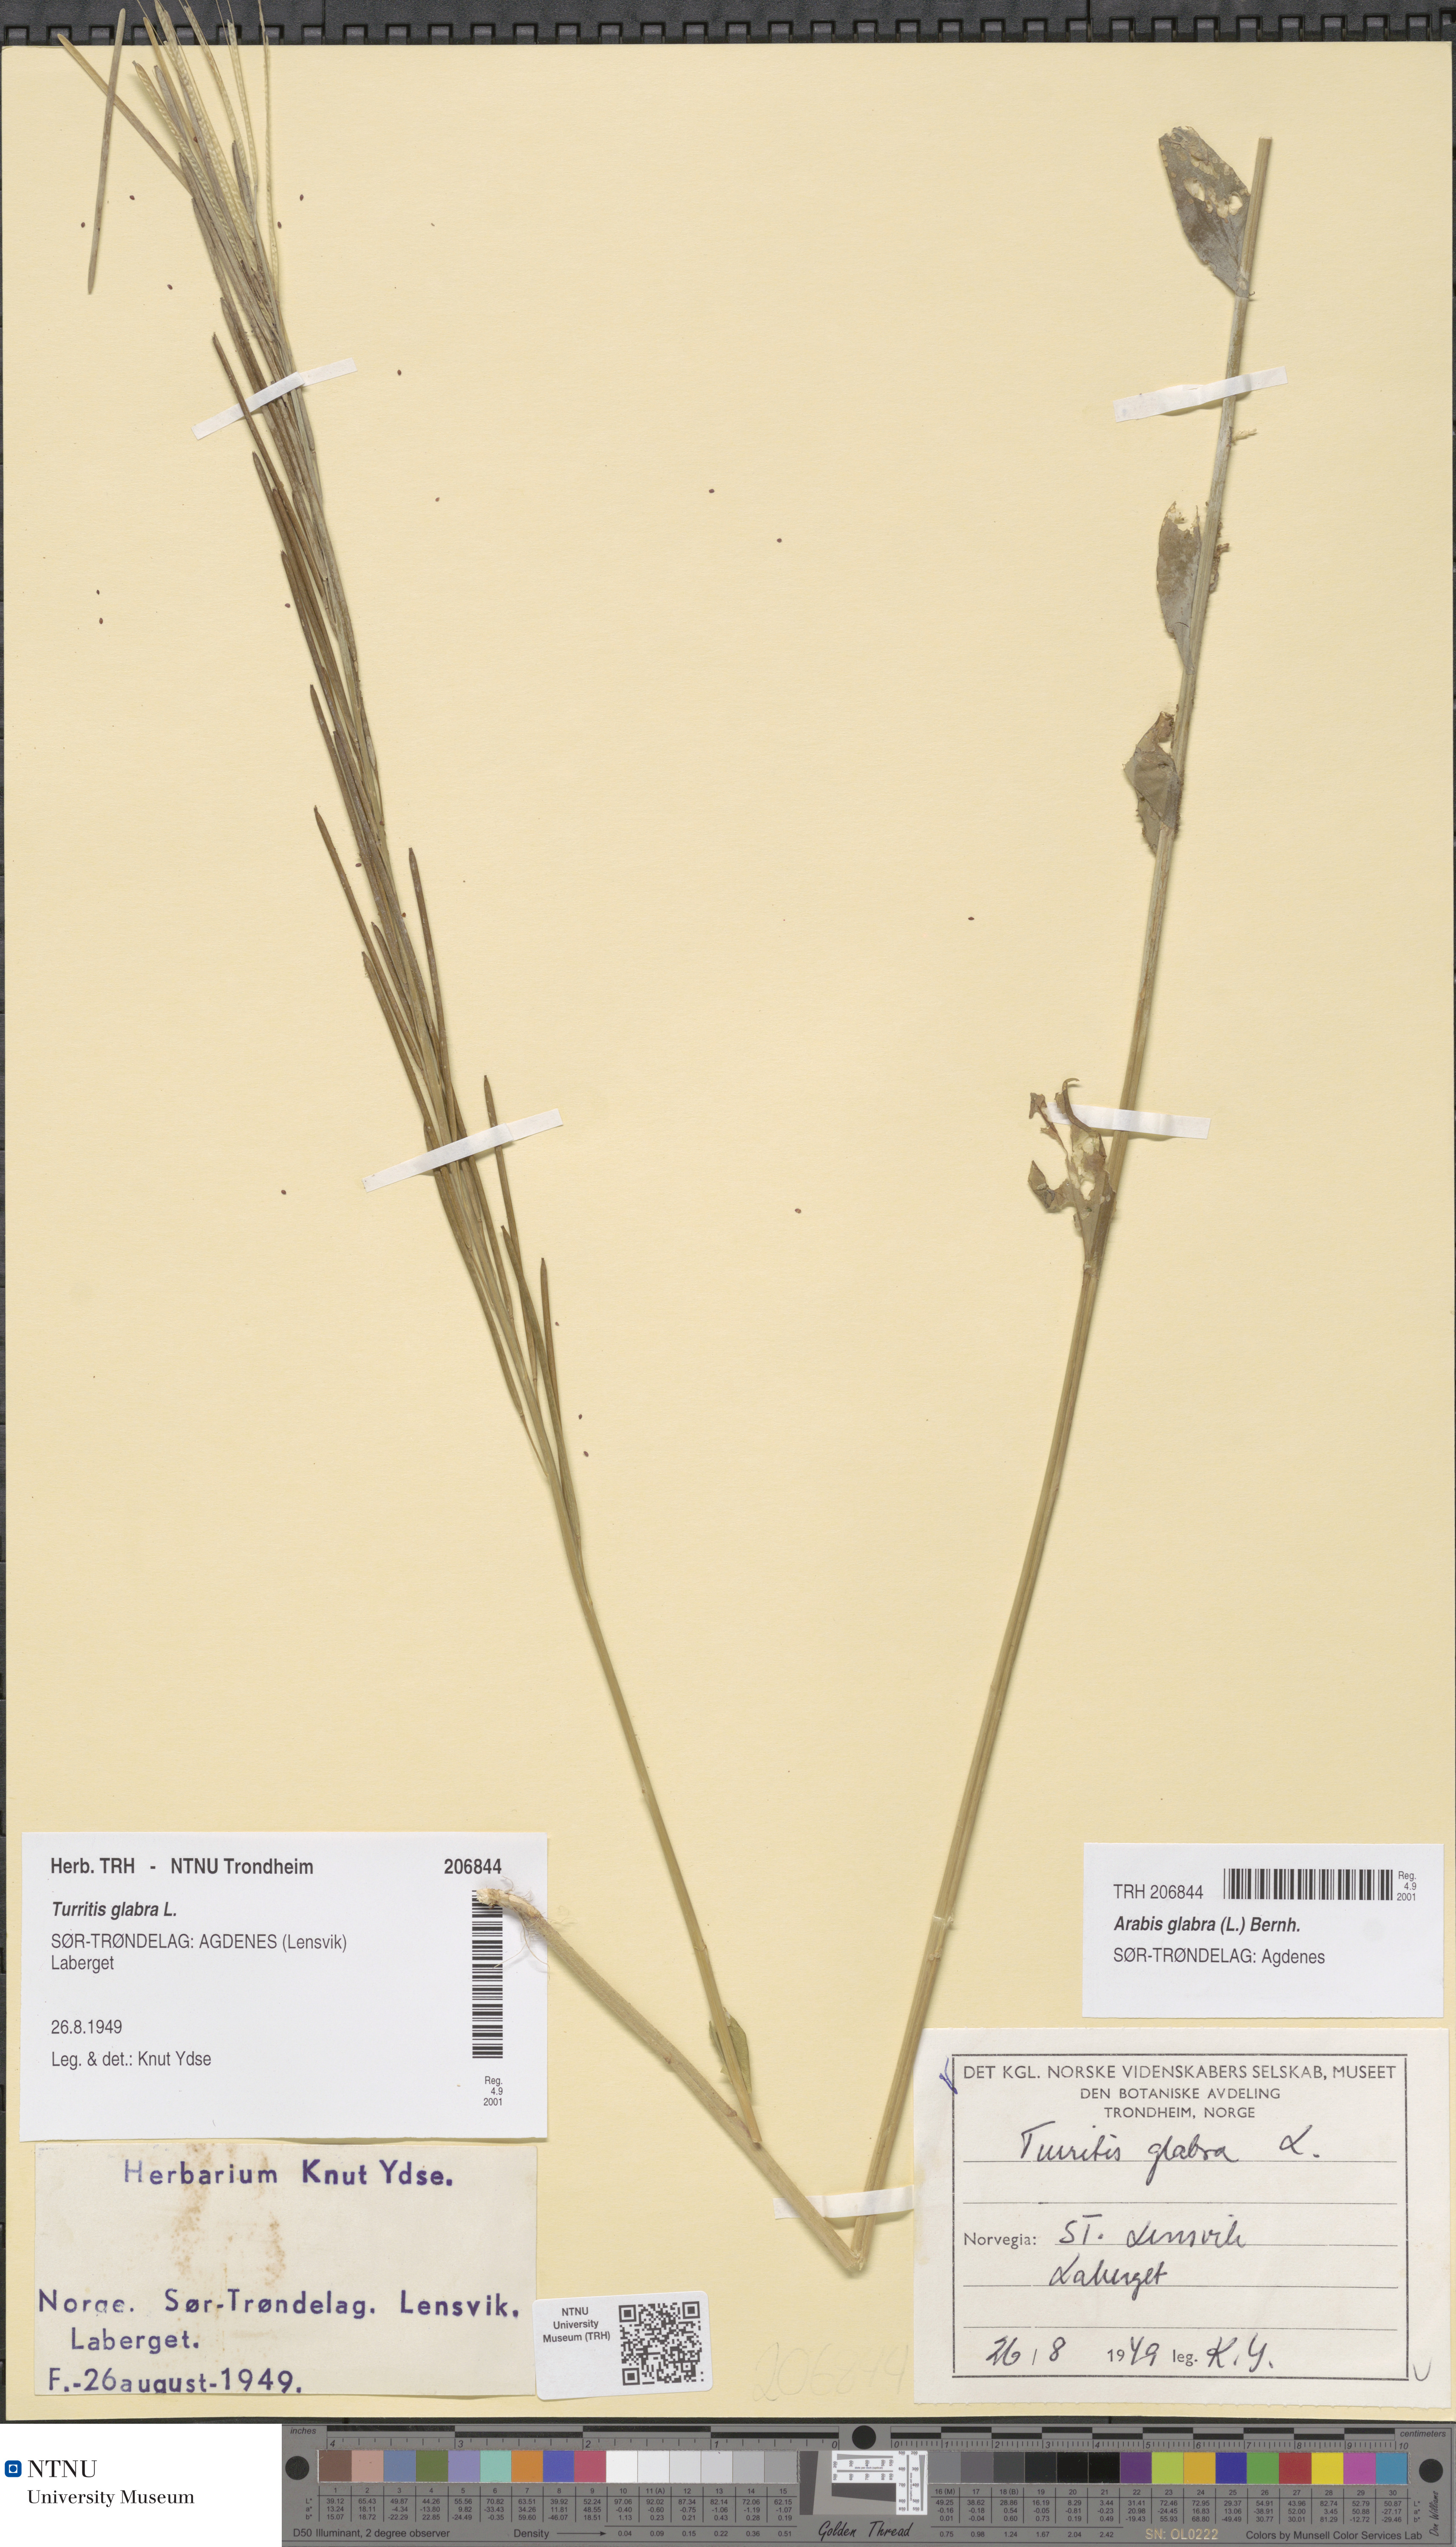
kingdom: Plantae
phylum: Tracheophyta
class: Magnoliopsida
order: Brassicales
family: Brassicaceae
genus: Turritis
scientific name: Turritis glabra
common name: Tower rockcress
